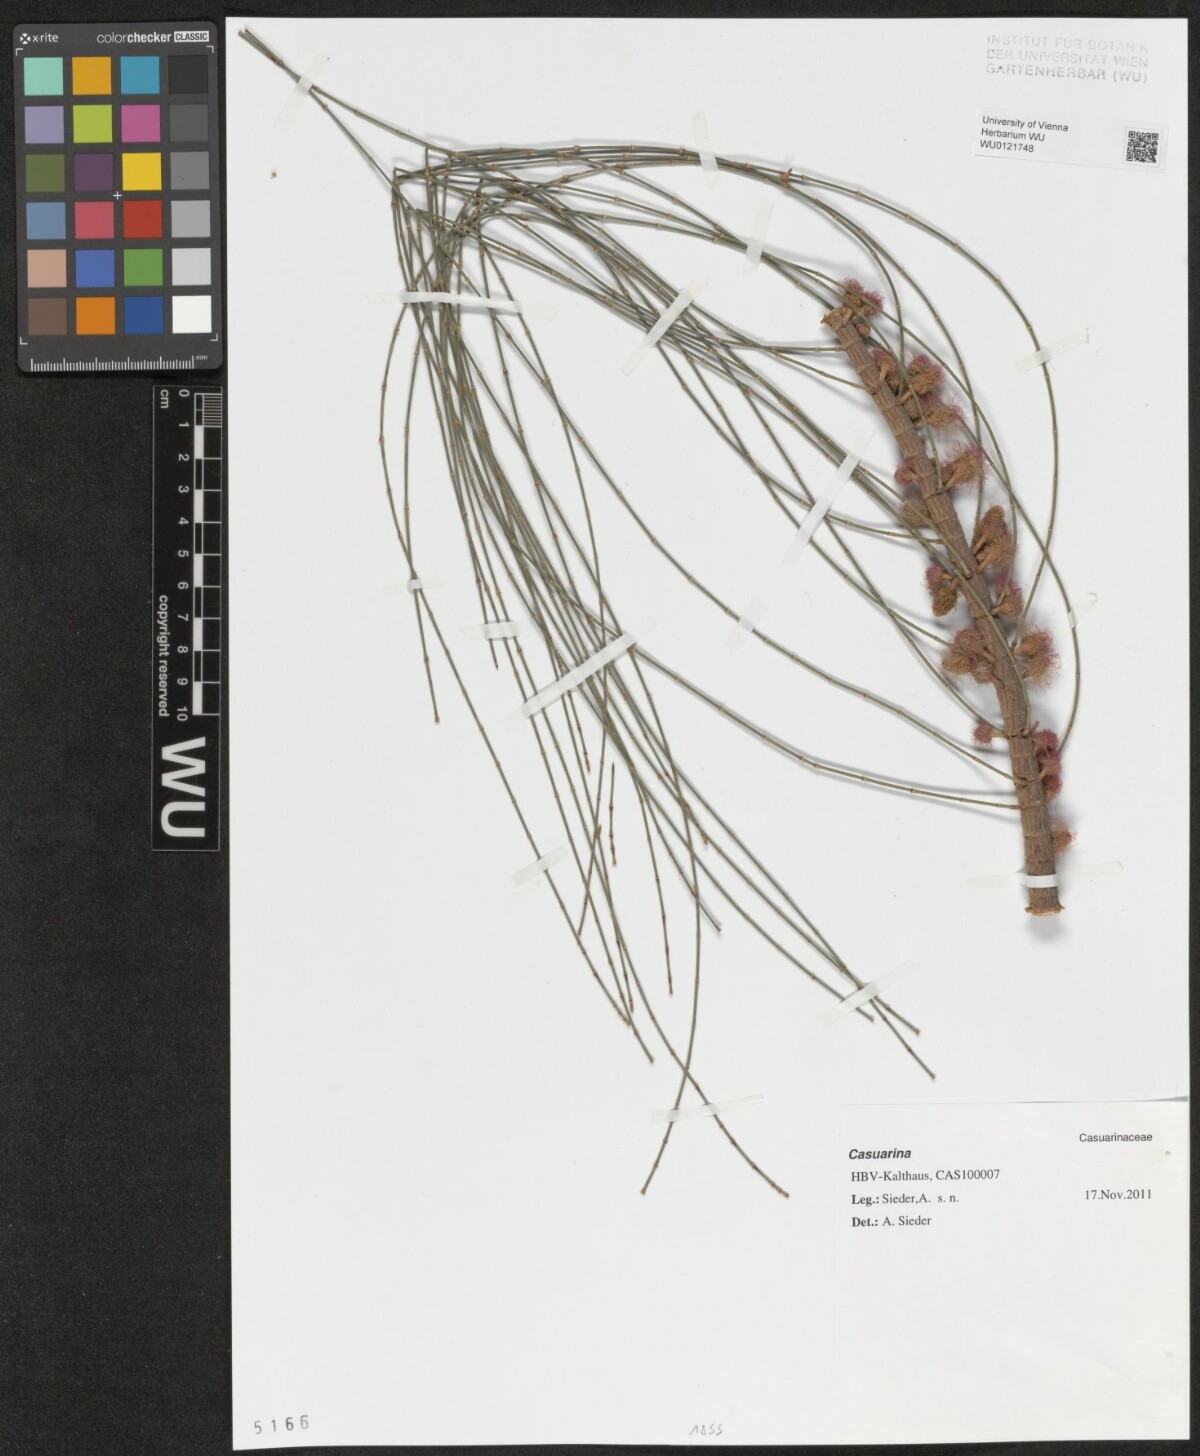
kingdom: Plantae
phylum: Tracheophyta
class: Magnoliopsida
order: Fagales
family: Casuarinaceae
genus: Casuarina
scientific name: Casuarina
